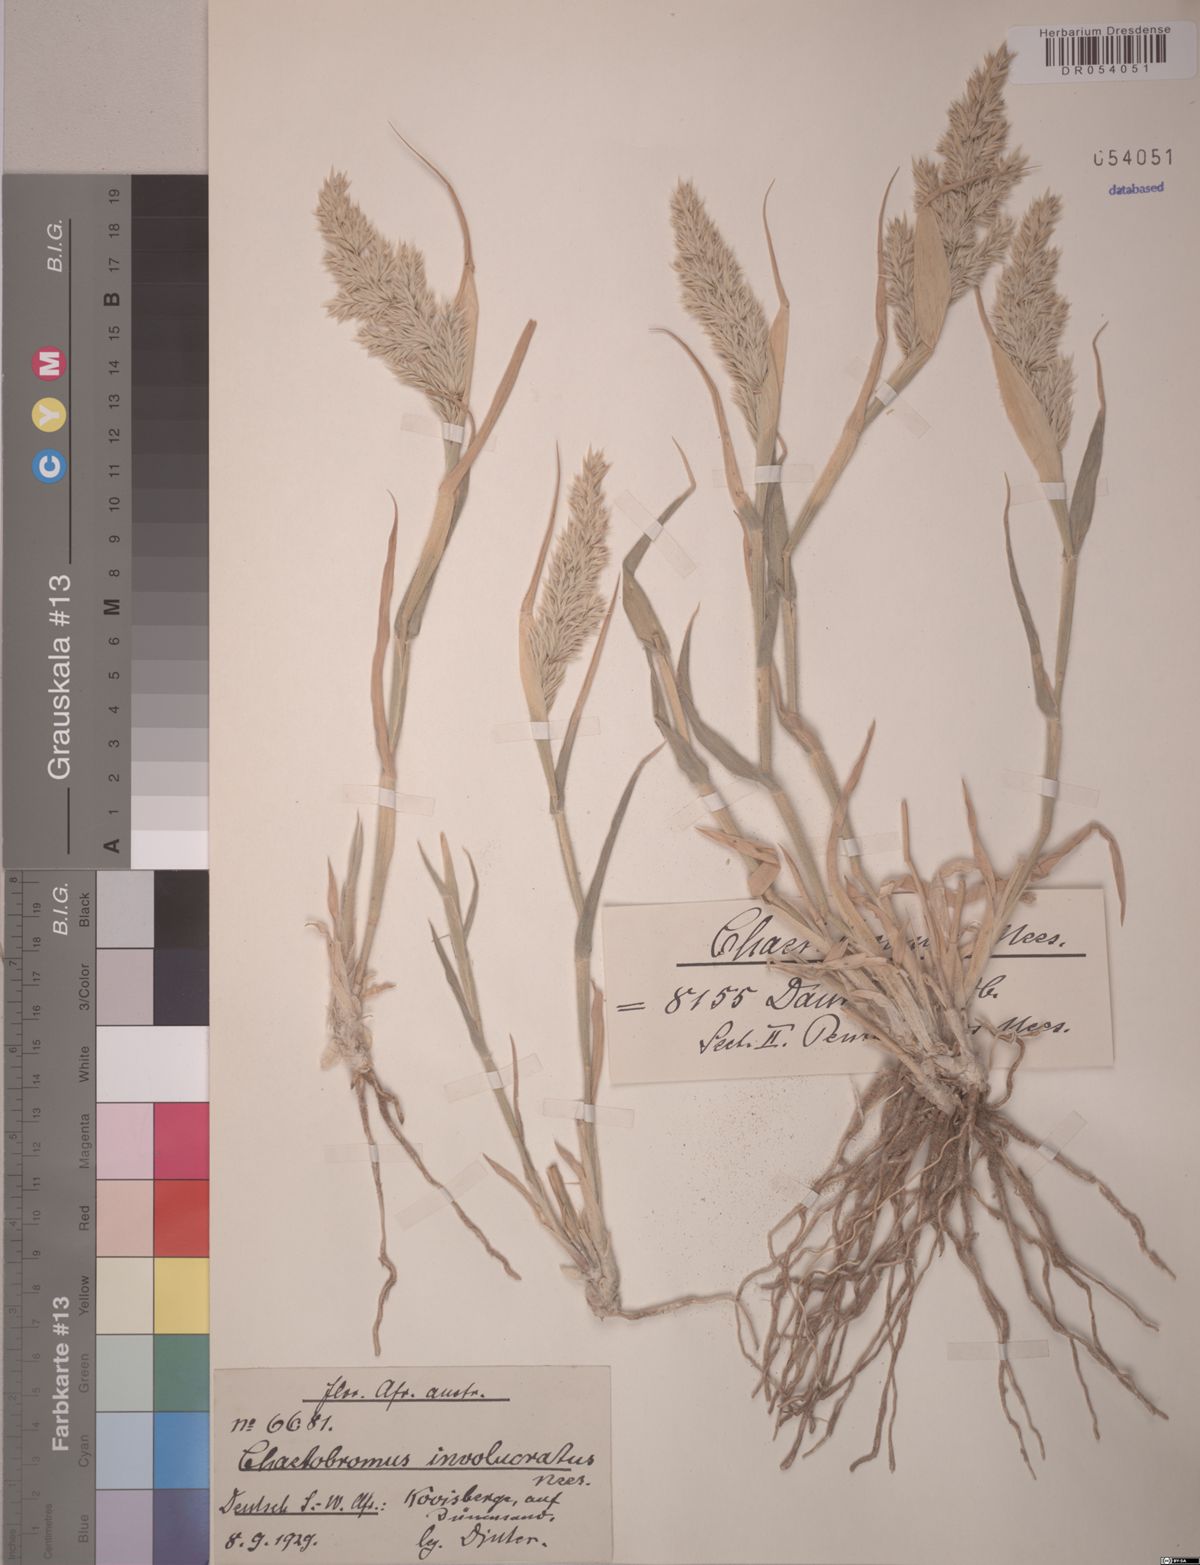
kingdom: Plantae
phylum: Tracheophyta
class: Liliopsida
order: Poales
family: Poaceae
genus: Chaetobromus
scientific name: Chaetobromus involucratus
